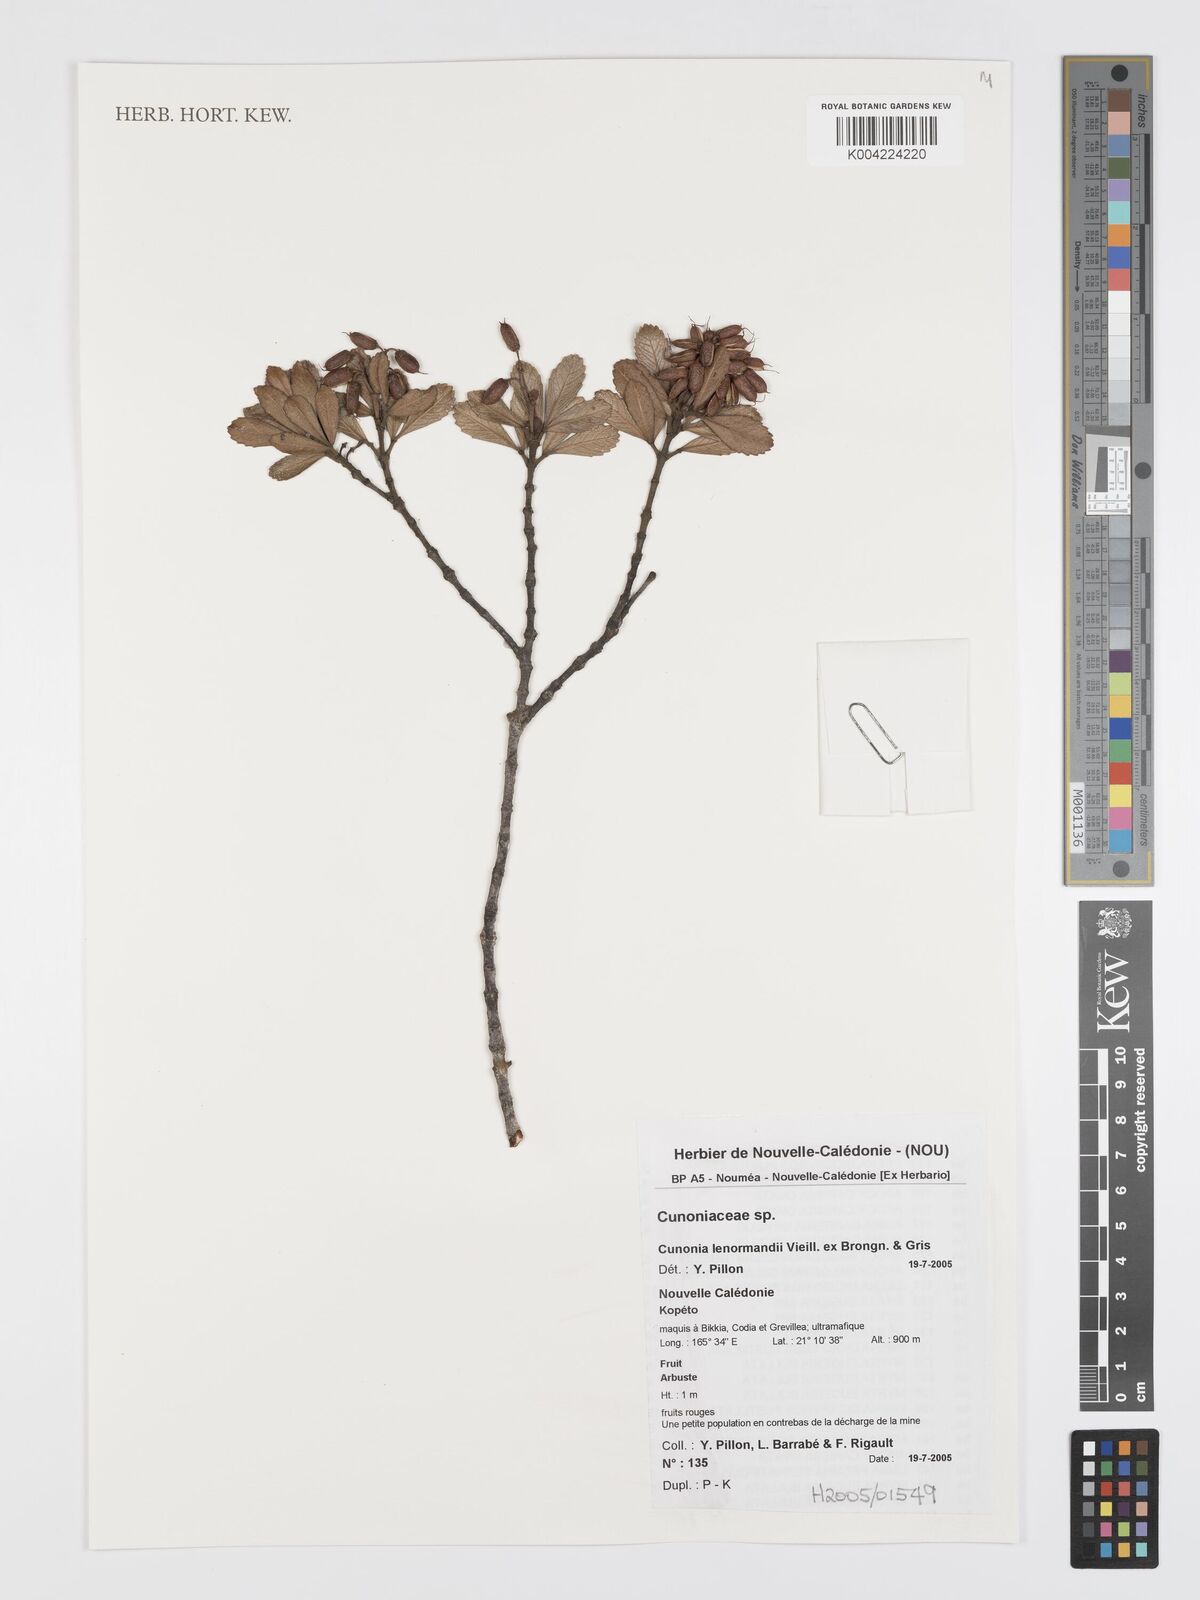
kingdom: Plantae
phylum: Tracheophyta
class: Magnoliopsida
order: Oxalidales
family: Cunoniaceae
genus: Cunonia
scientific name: Cunonia lenormandii
